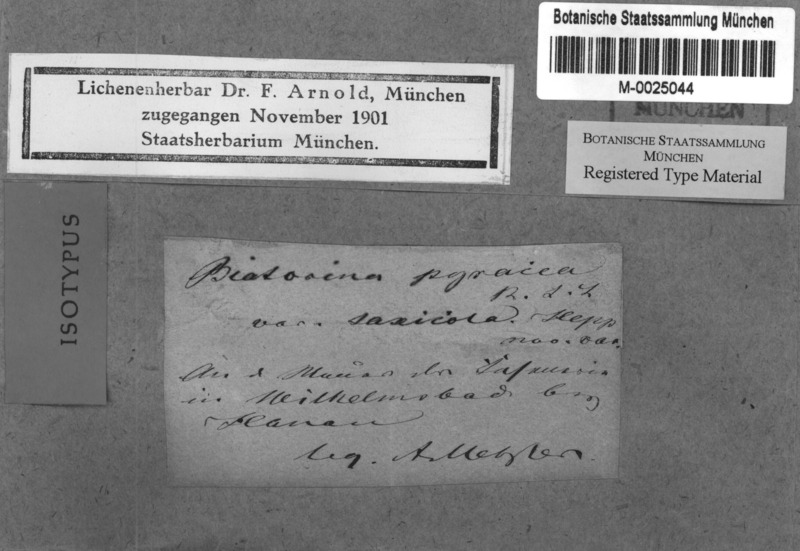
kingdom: Fungi
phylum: Ascomycota
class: Lecanoromycetes
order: Teloschistales
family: Teloschistaceae
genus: Cerothallia
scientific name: Cerothallia luteoalba
